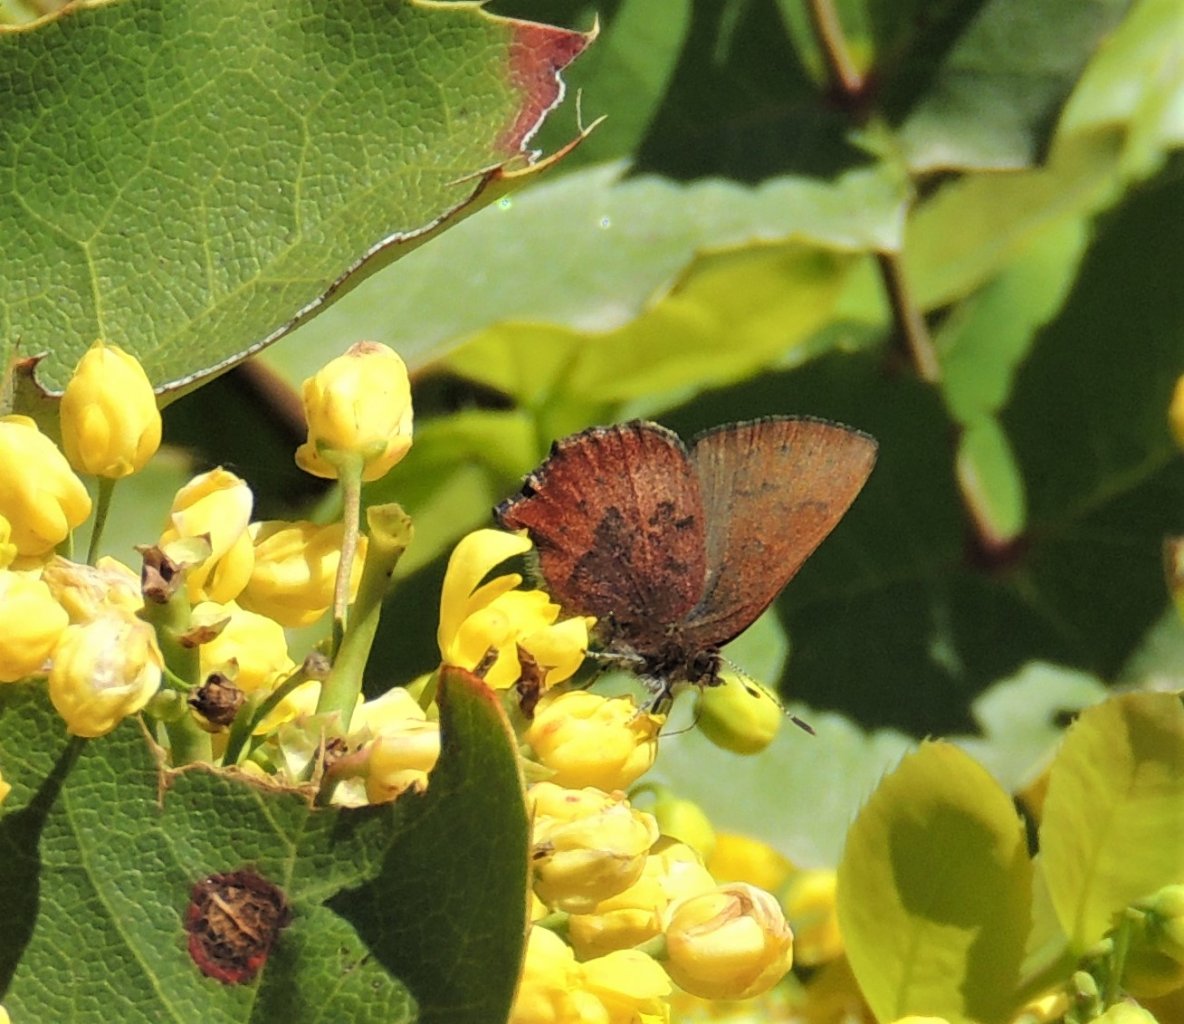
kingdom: Animalia
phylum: Arthropoda
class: Insecta
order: Lepidoptera
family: Lycaenidae
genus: Incisalia
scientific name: Incisalia irioides
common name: Brown Elfin
